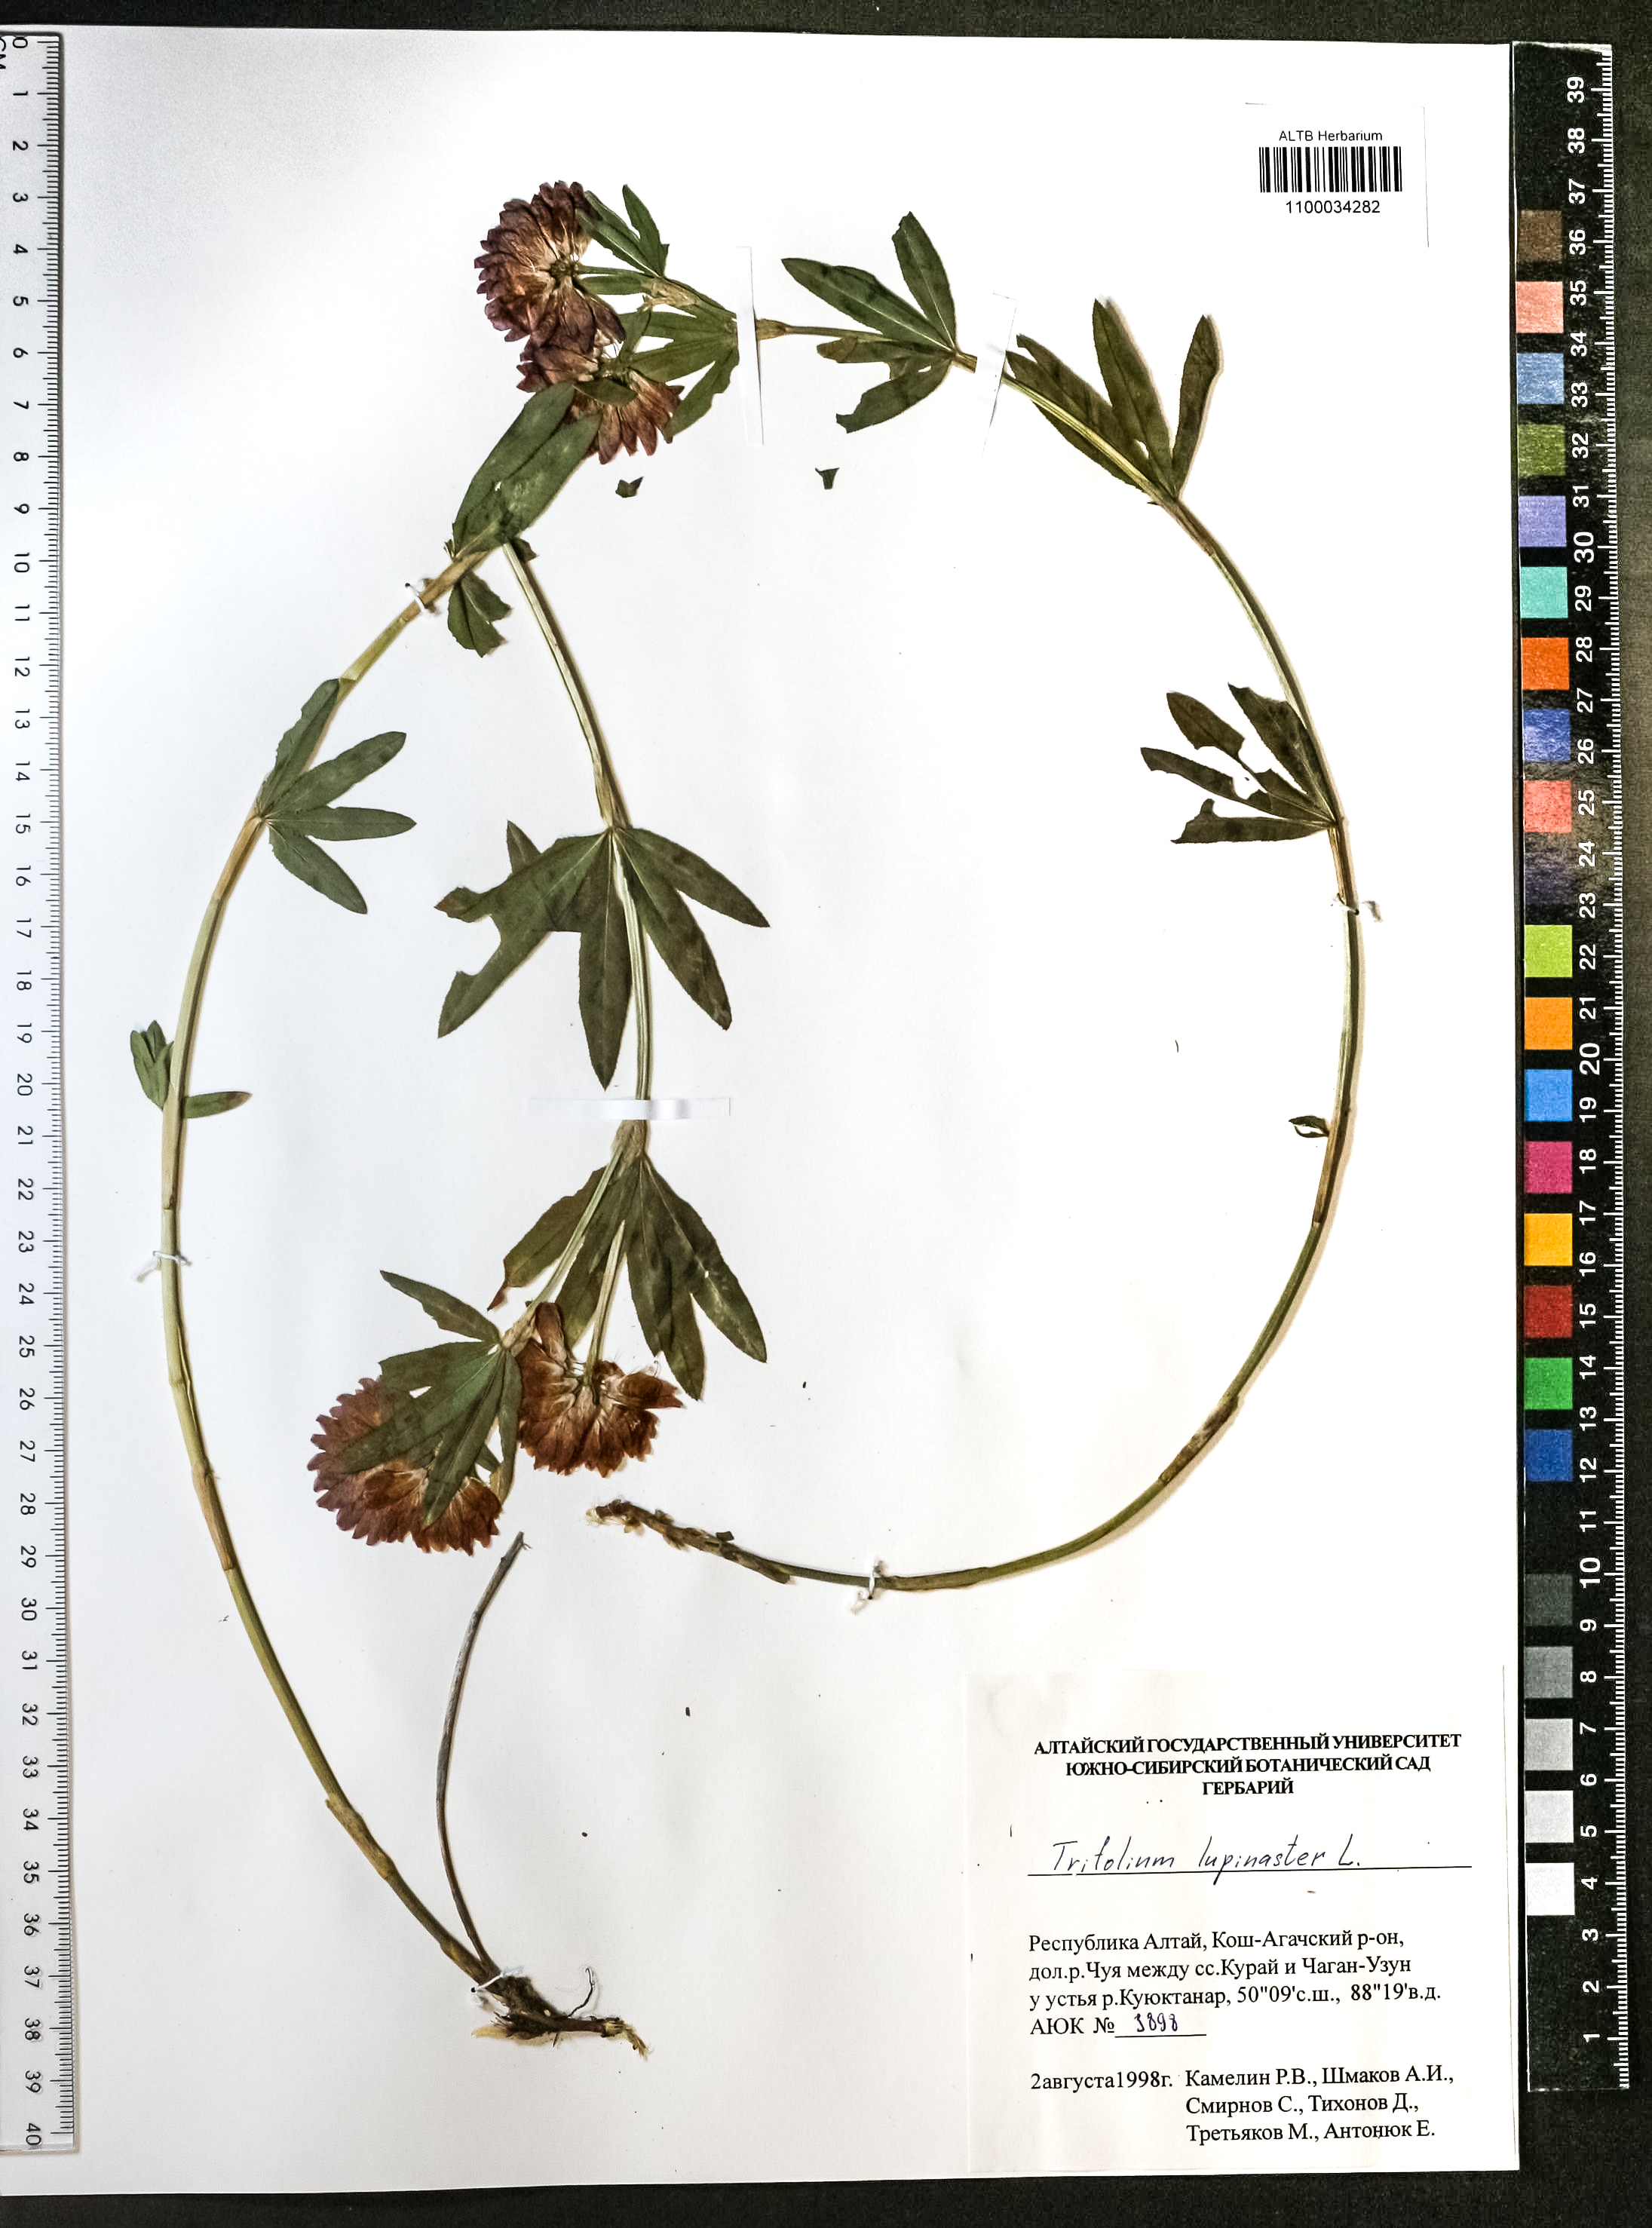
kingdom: Plantae
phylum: Tracheophyta
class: Magnoliopsida
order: Fabales
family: Fabaceae
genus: Trifolium
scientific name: Trifolium lupinaster
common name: Lupine clover
